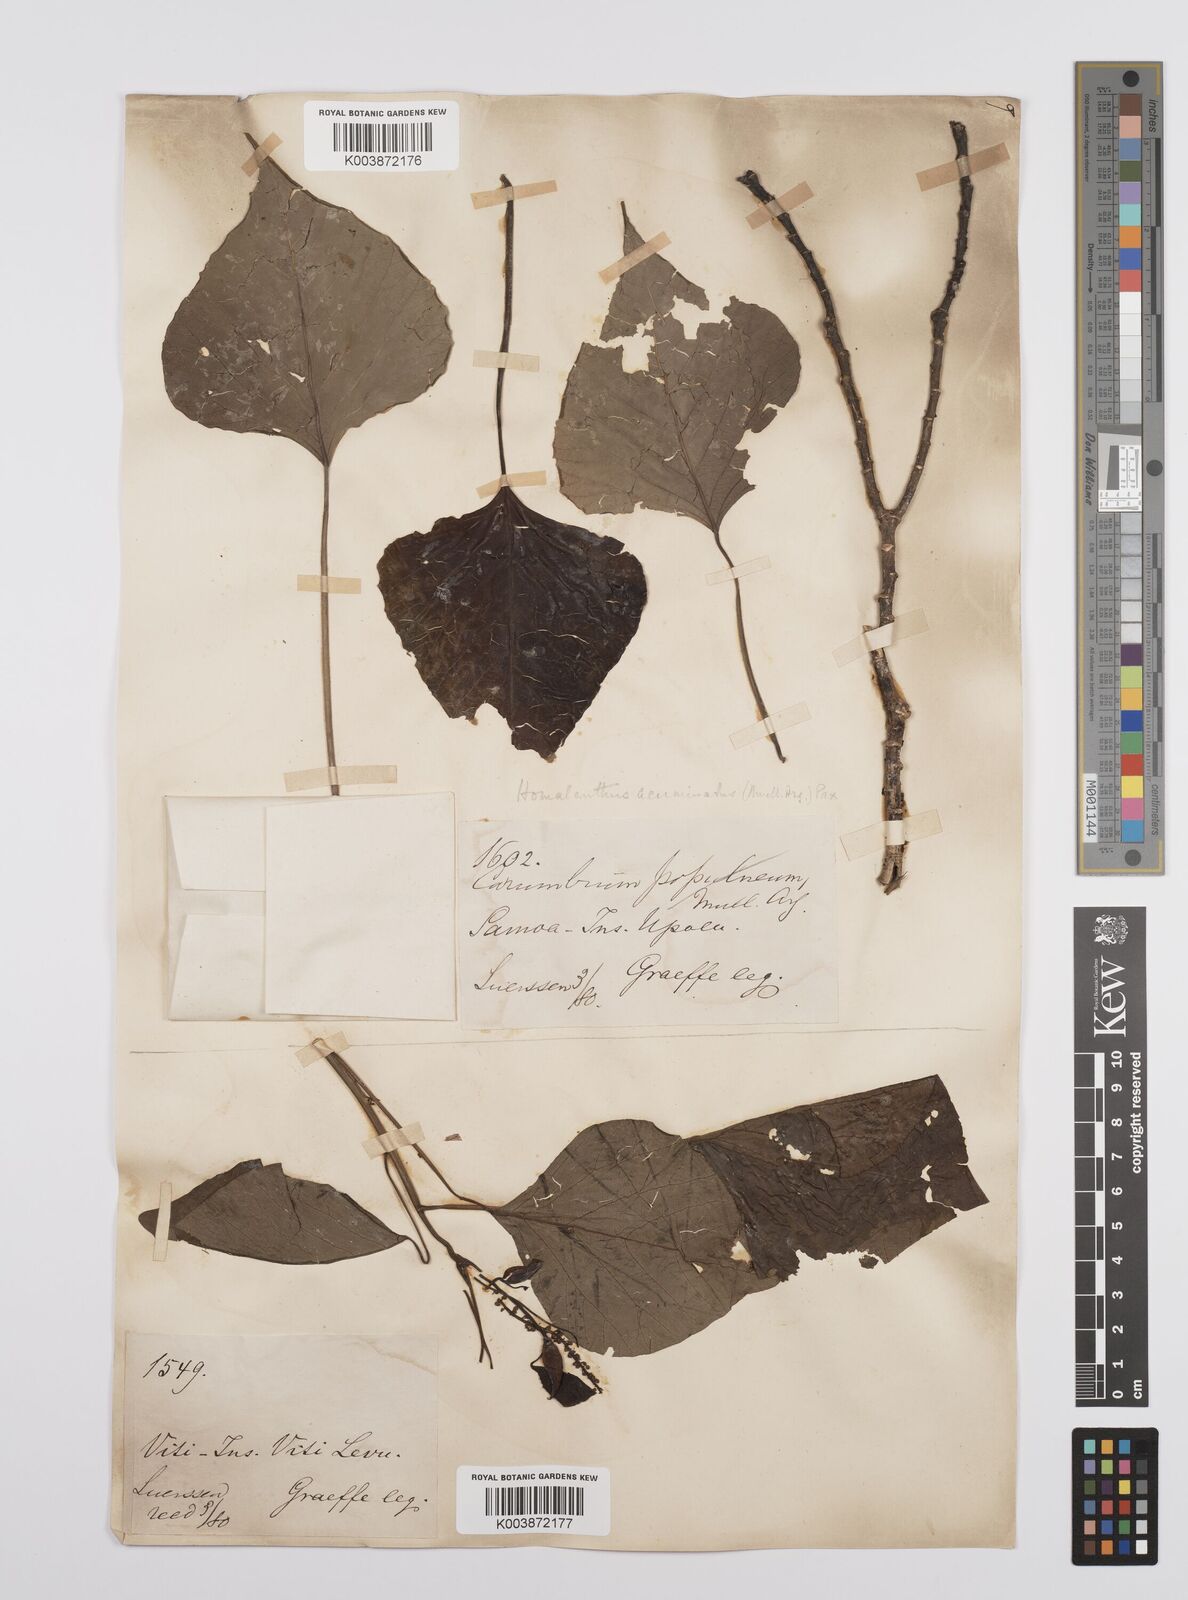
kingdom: Plantae
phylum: Tracheophyta
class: Magnoliopsida
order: Malpighiales
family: Euphorbiaceae
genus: Homalanthus
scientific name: Homalanthus nutans
